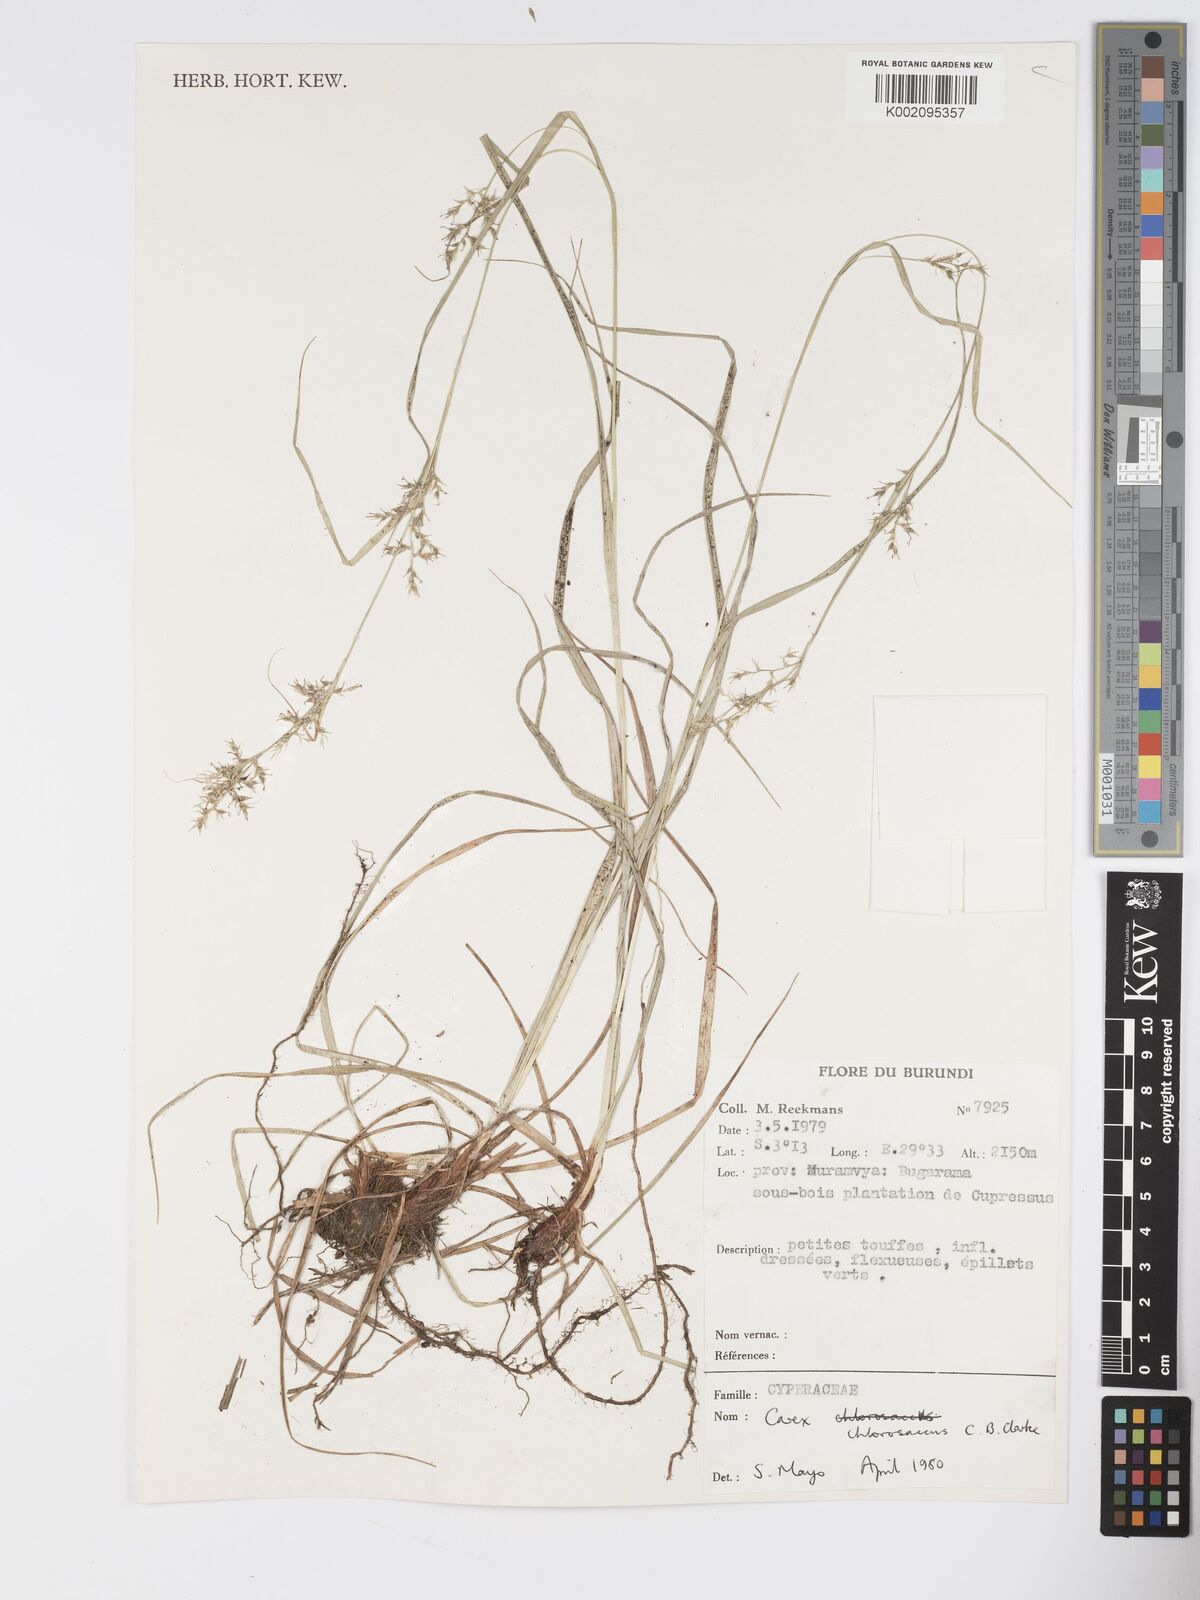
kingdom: Plantae
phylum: Tracheophyta
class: Liliopsida
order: Poales
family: Cyperaceae
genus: Carex
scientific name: Carex chlorosaccus
